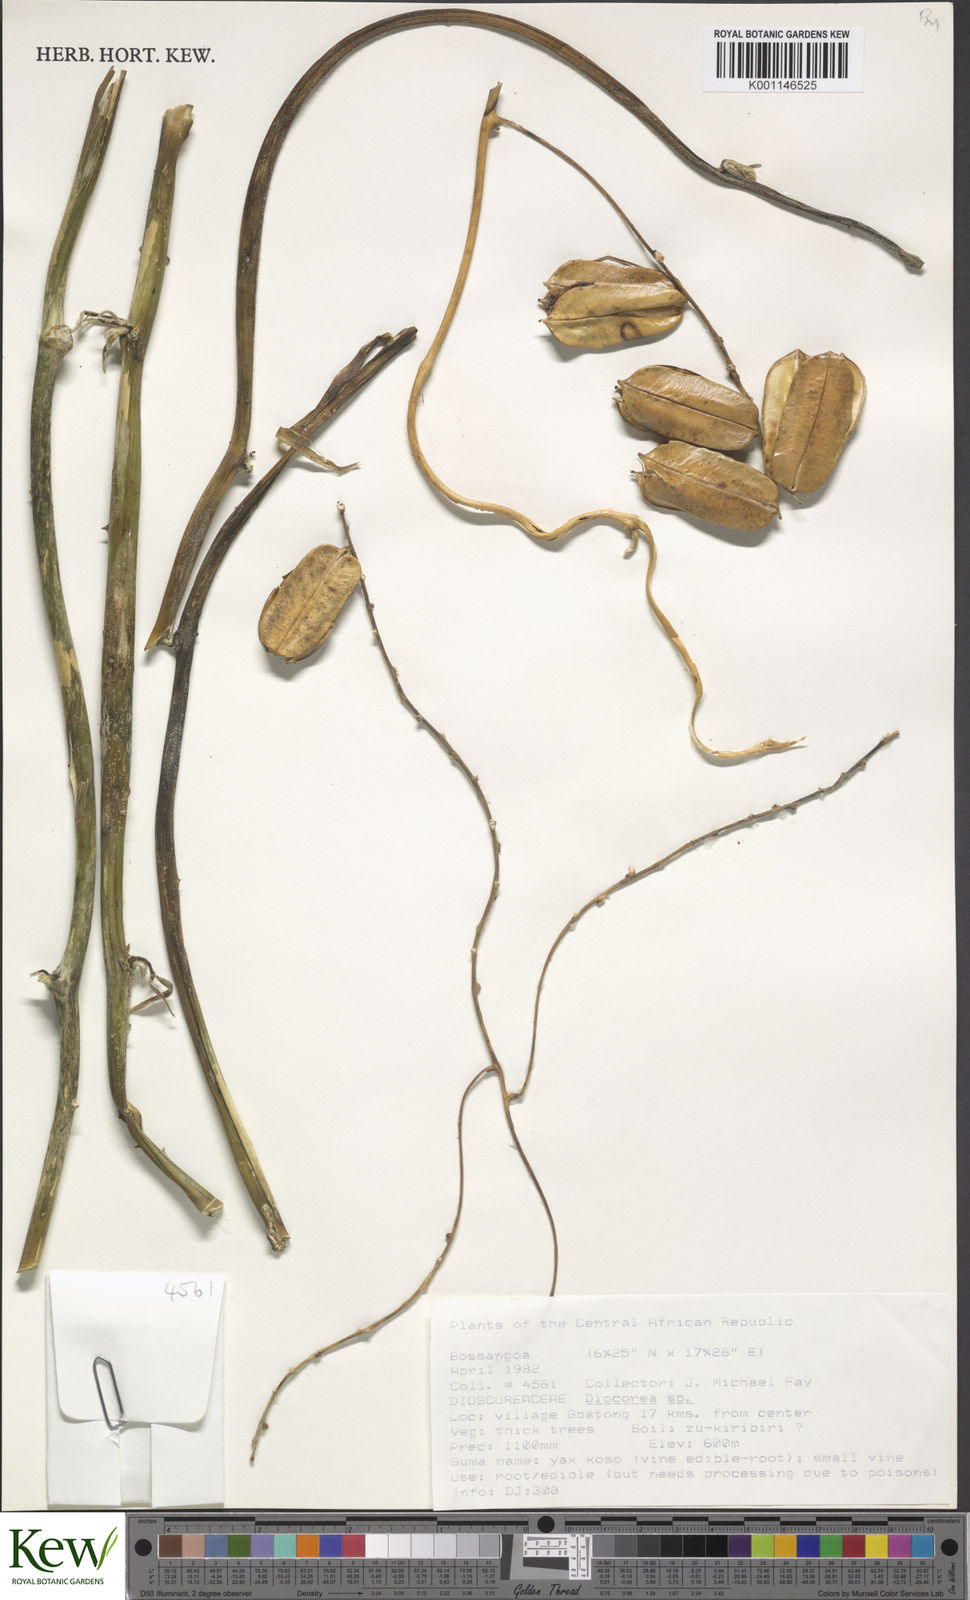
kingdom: Plantae
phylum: Tracheophyta
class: Liliopsida
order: Dioscoreales
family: Dioscoreaceae
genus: Dioscorea
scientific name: Dioscorea
